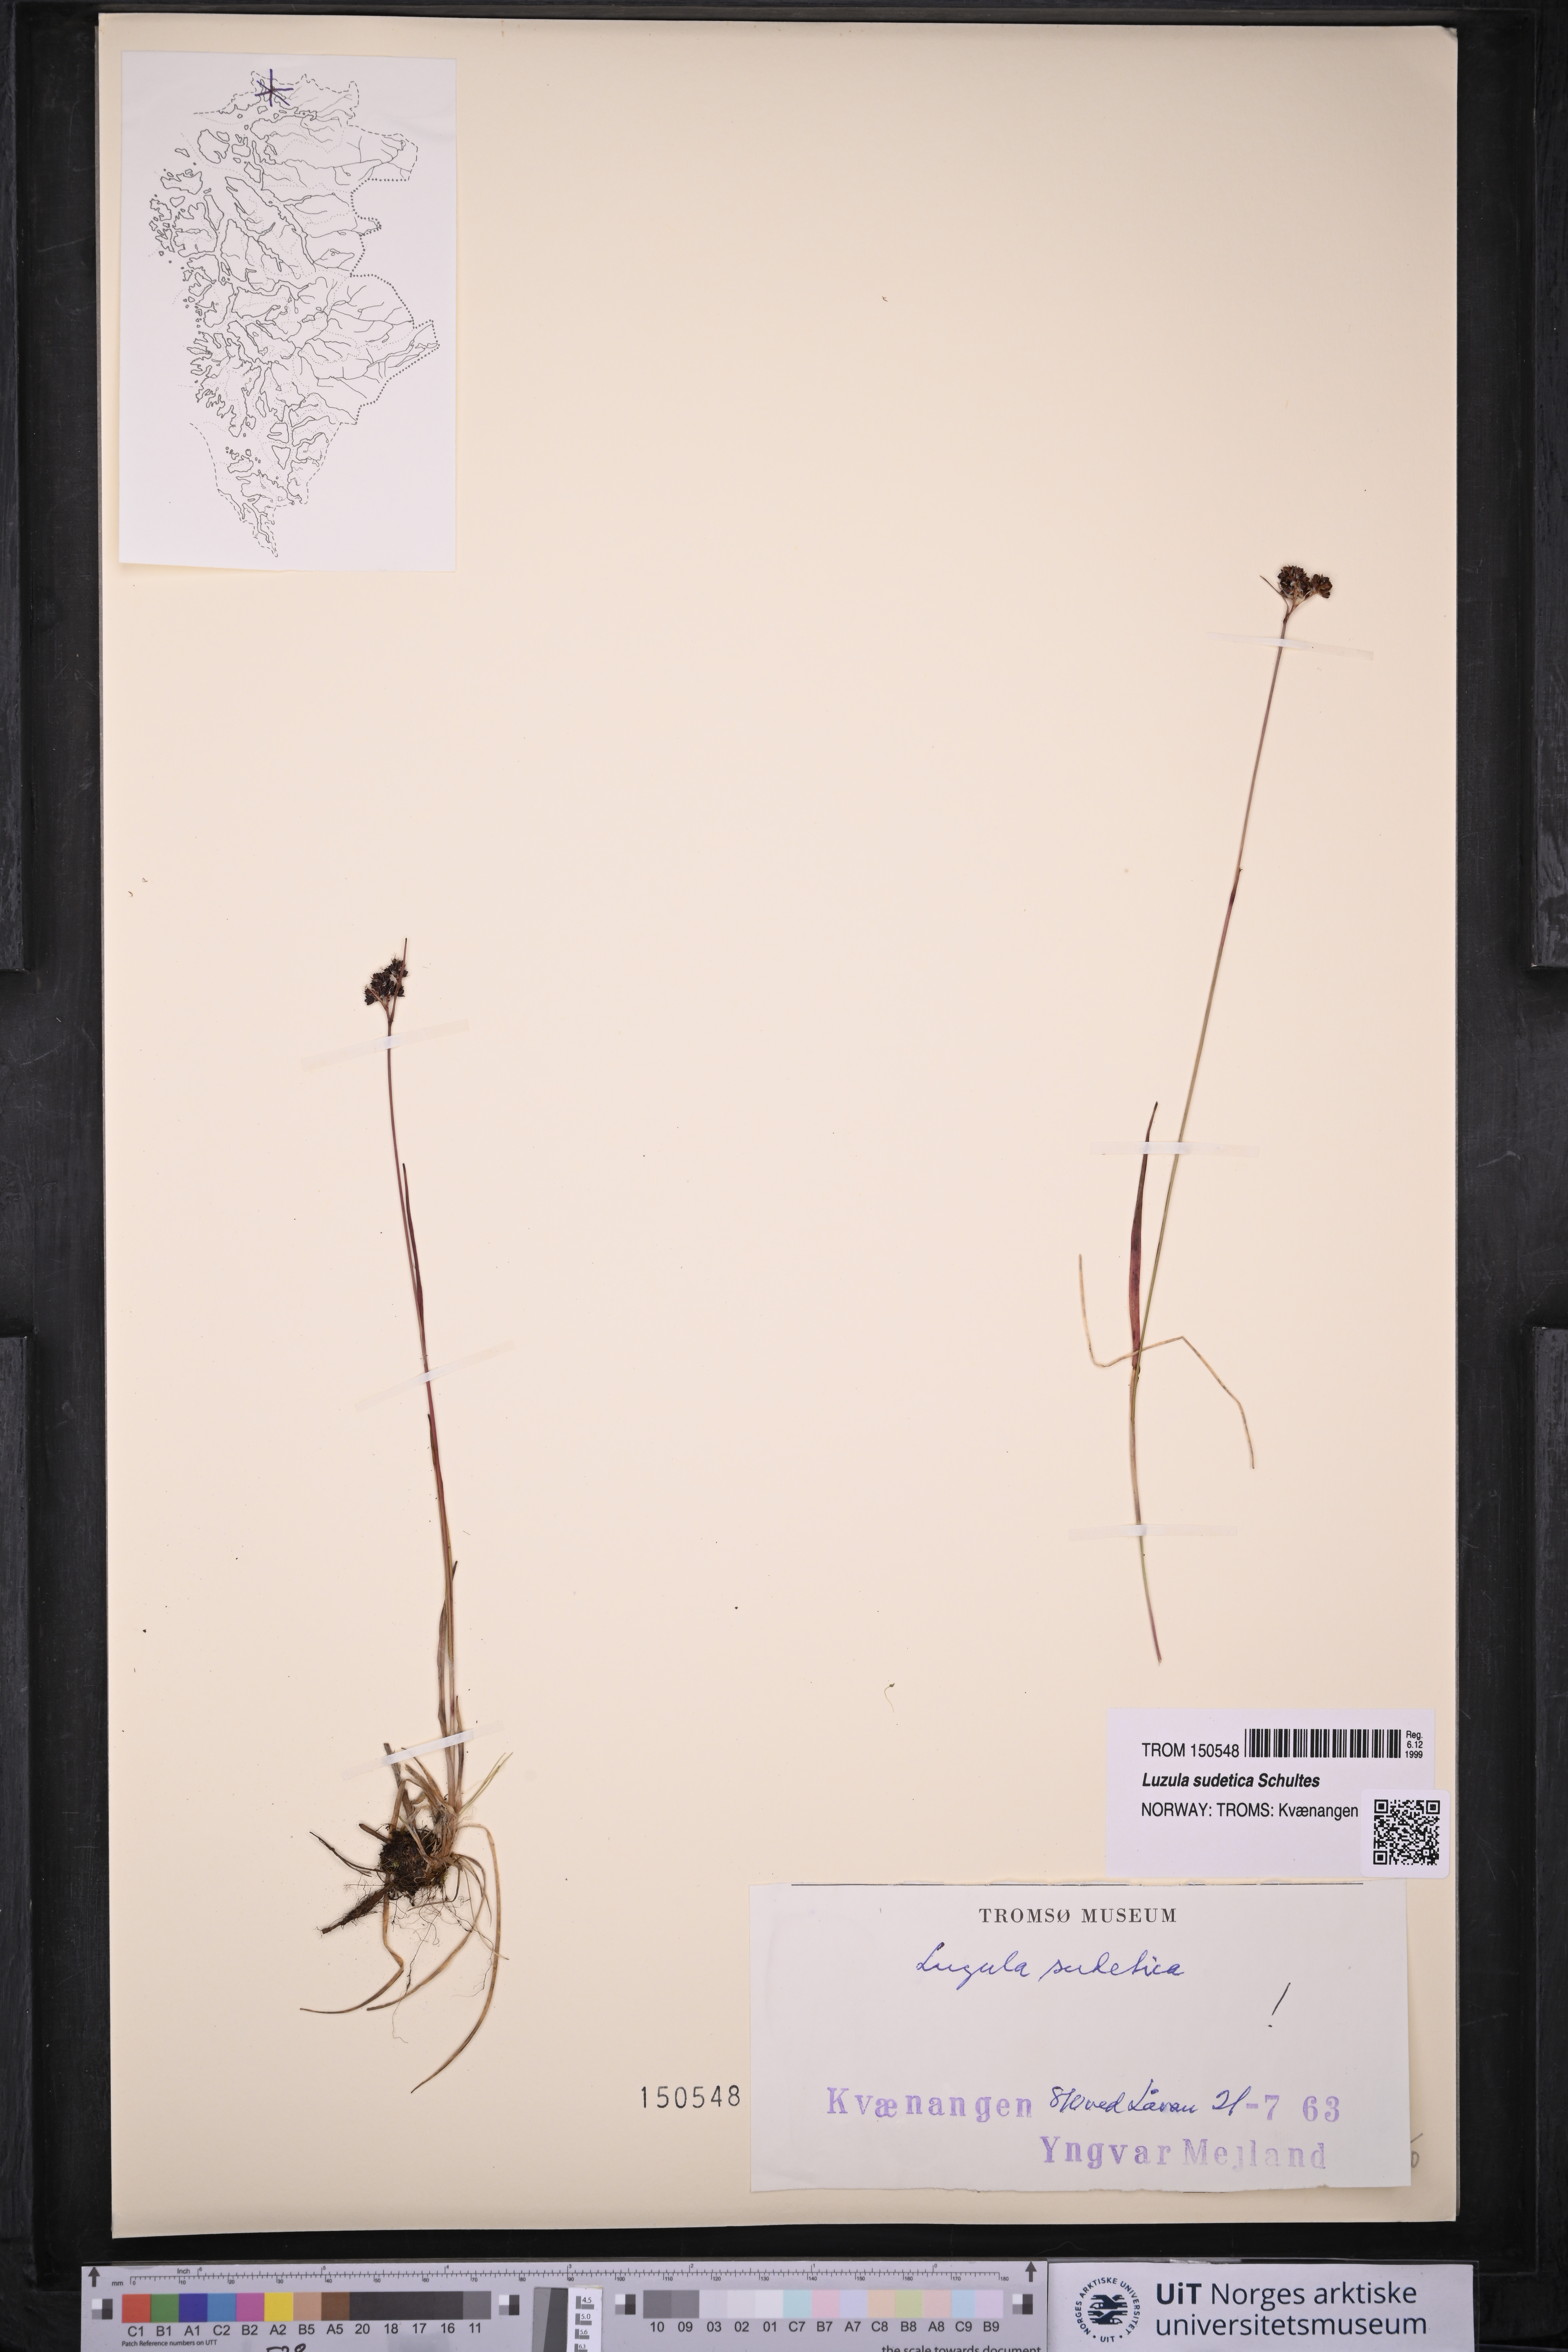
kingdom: Plantae
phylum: Tracheophyta
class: Liliopsida
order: Poales
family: Juncaceae
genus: Luzula
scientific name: Luzula sudetica
